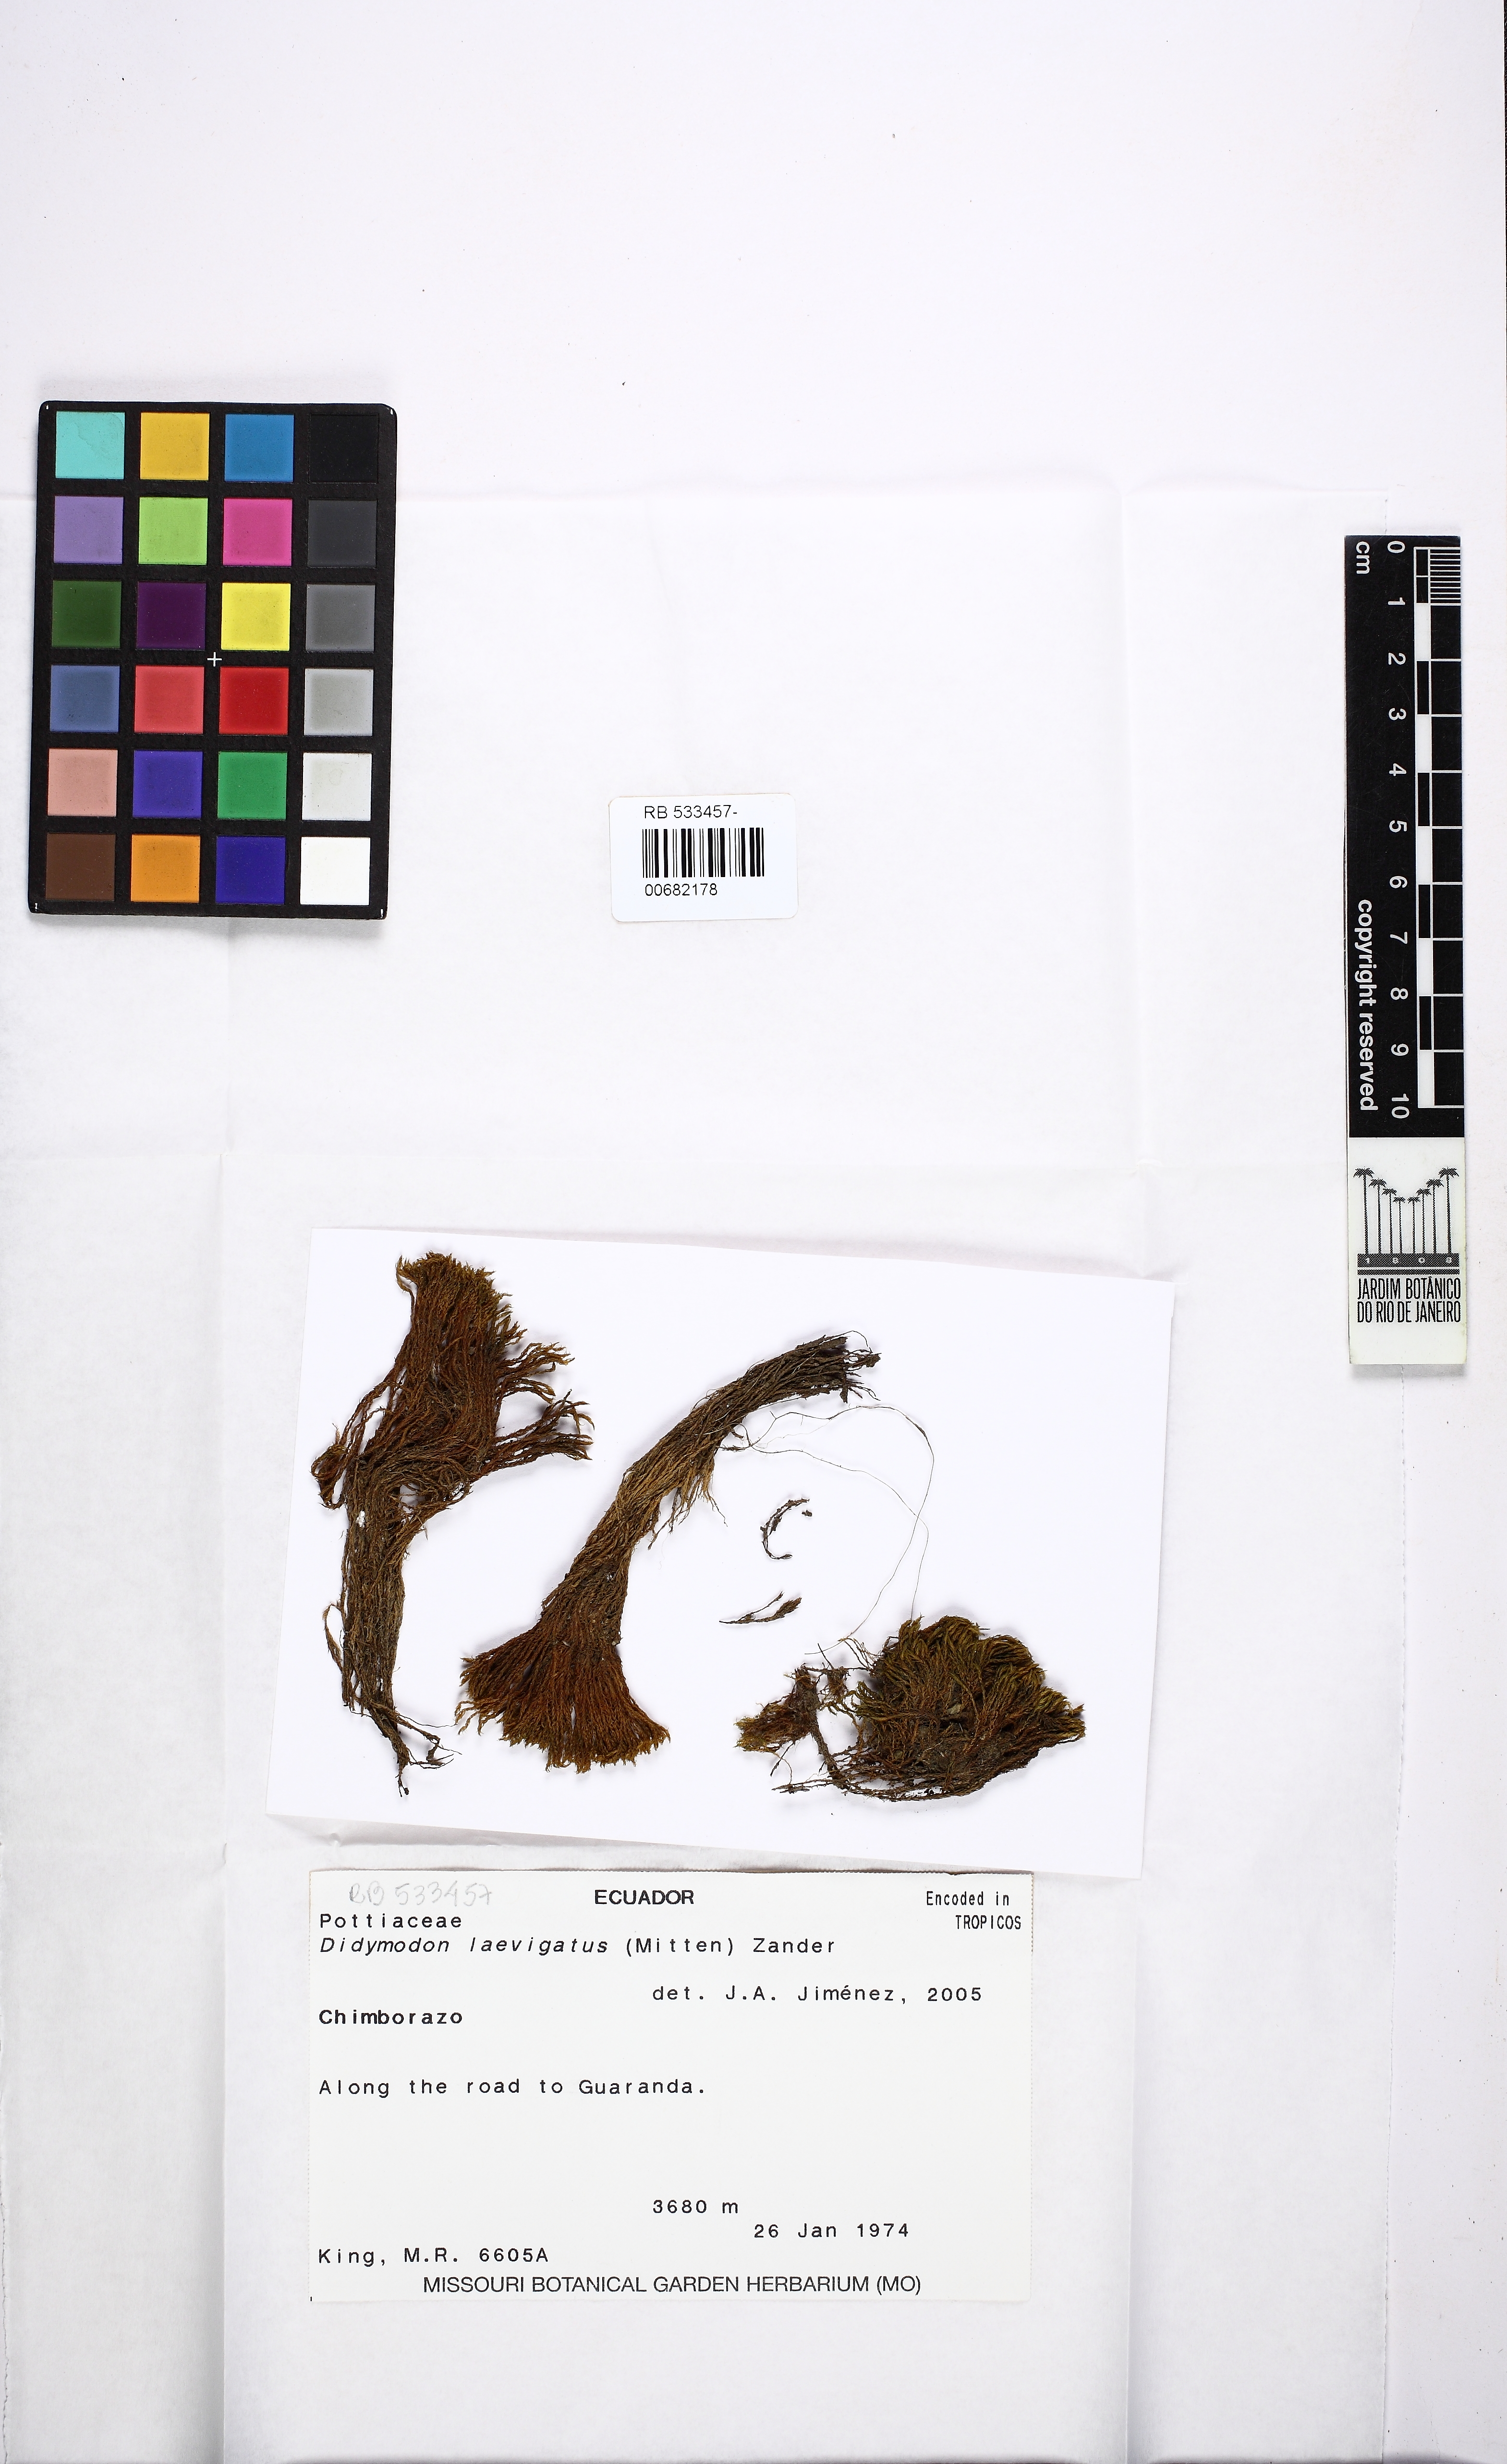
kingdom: Plantae
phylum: Bryophyta
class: Bryopsida
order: Pottiales
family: Pottiaceae
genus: Didymodon
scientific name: Didymodon laevigatus
